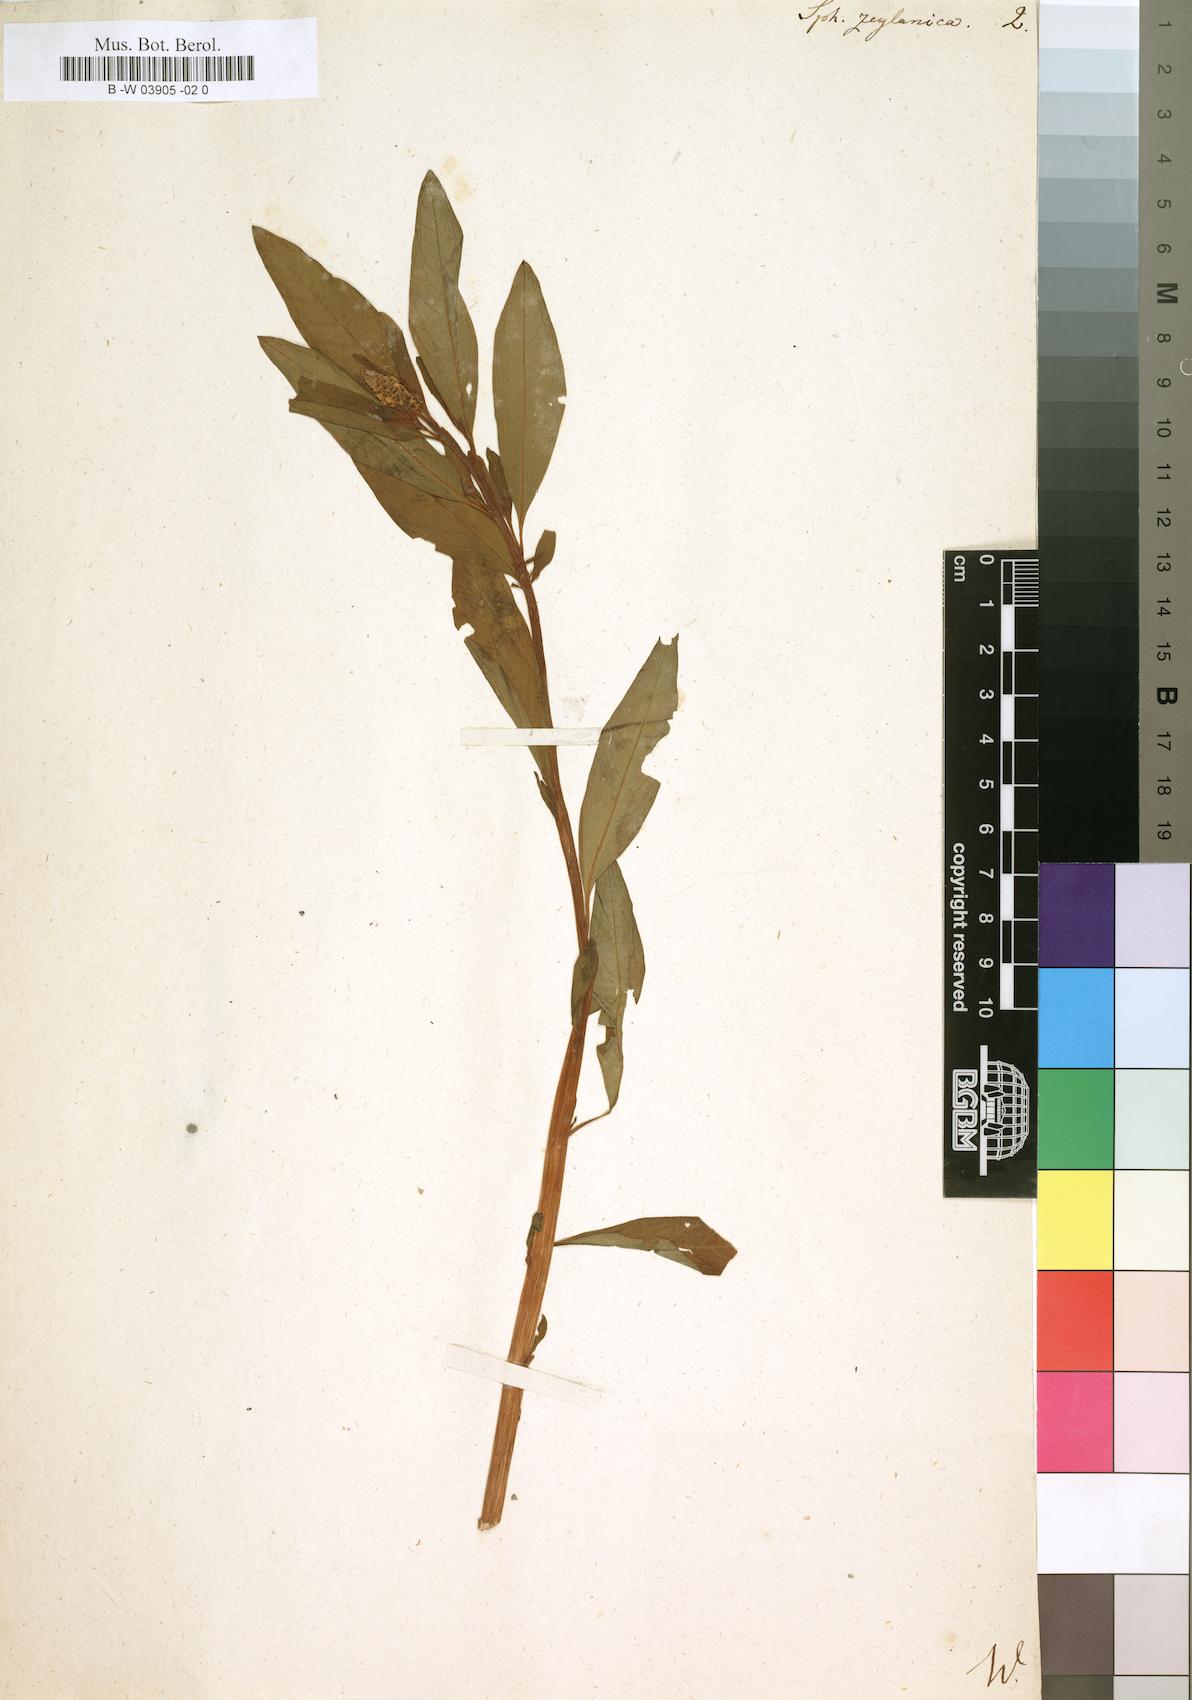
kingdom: Plantae
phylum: Tracheophyta
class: Magnoliopsida
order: Solanales
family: Sphenocleaceae
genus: Sphenoclea
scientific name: Sphenoclea zeylanica
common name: Chickenspike
